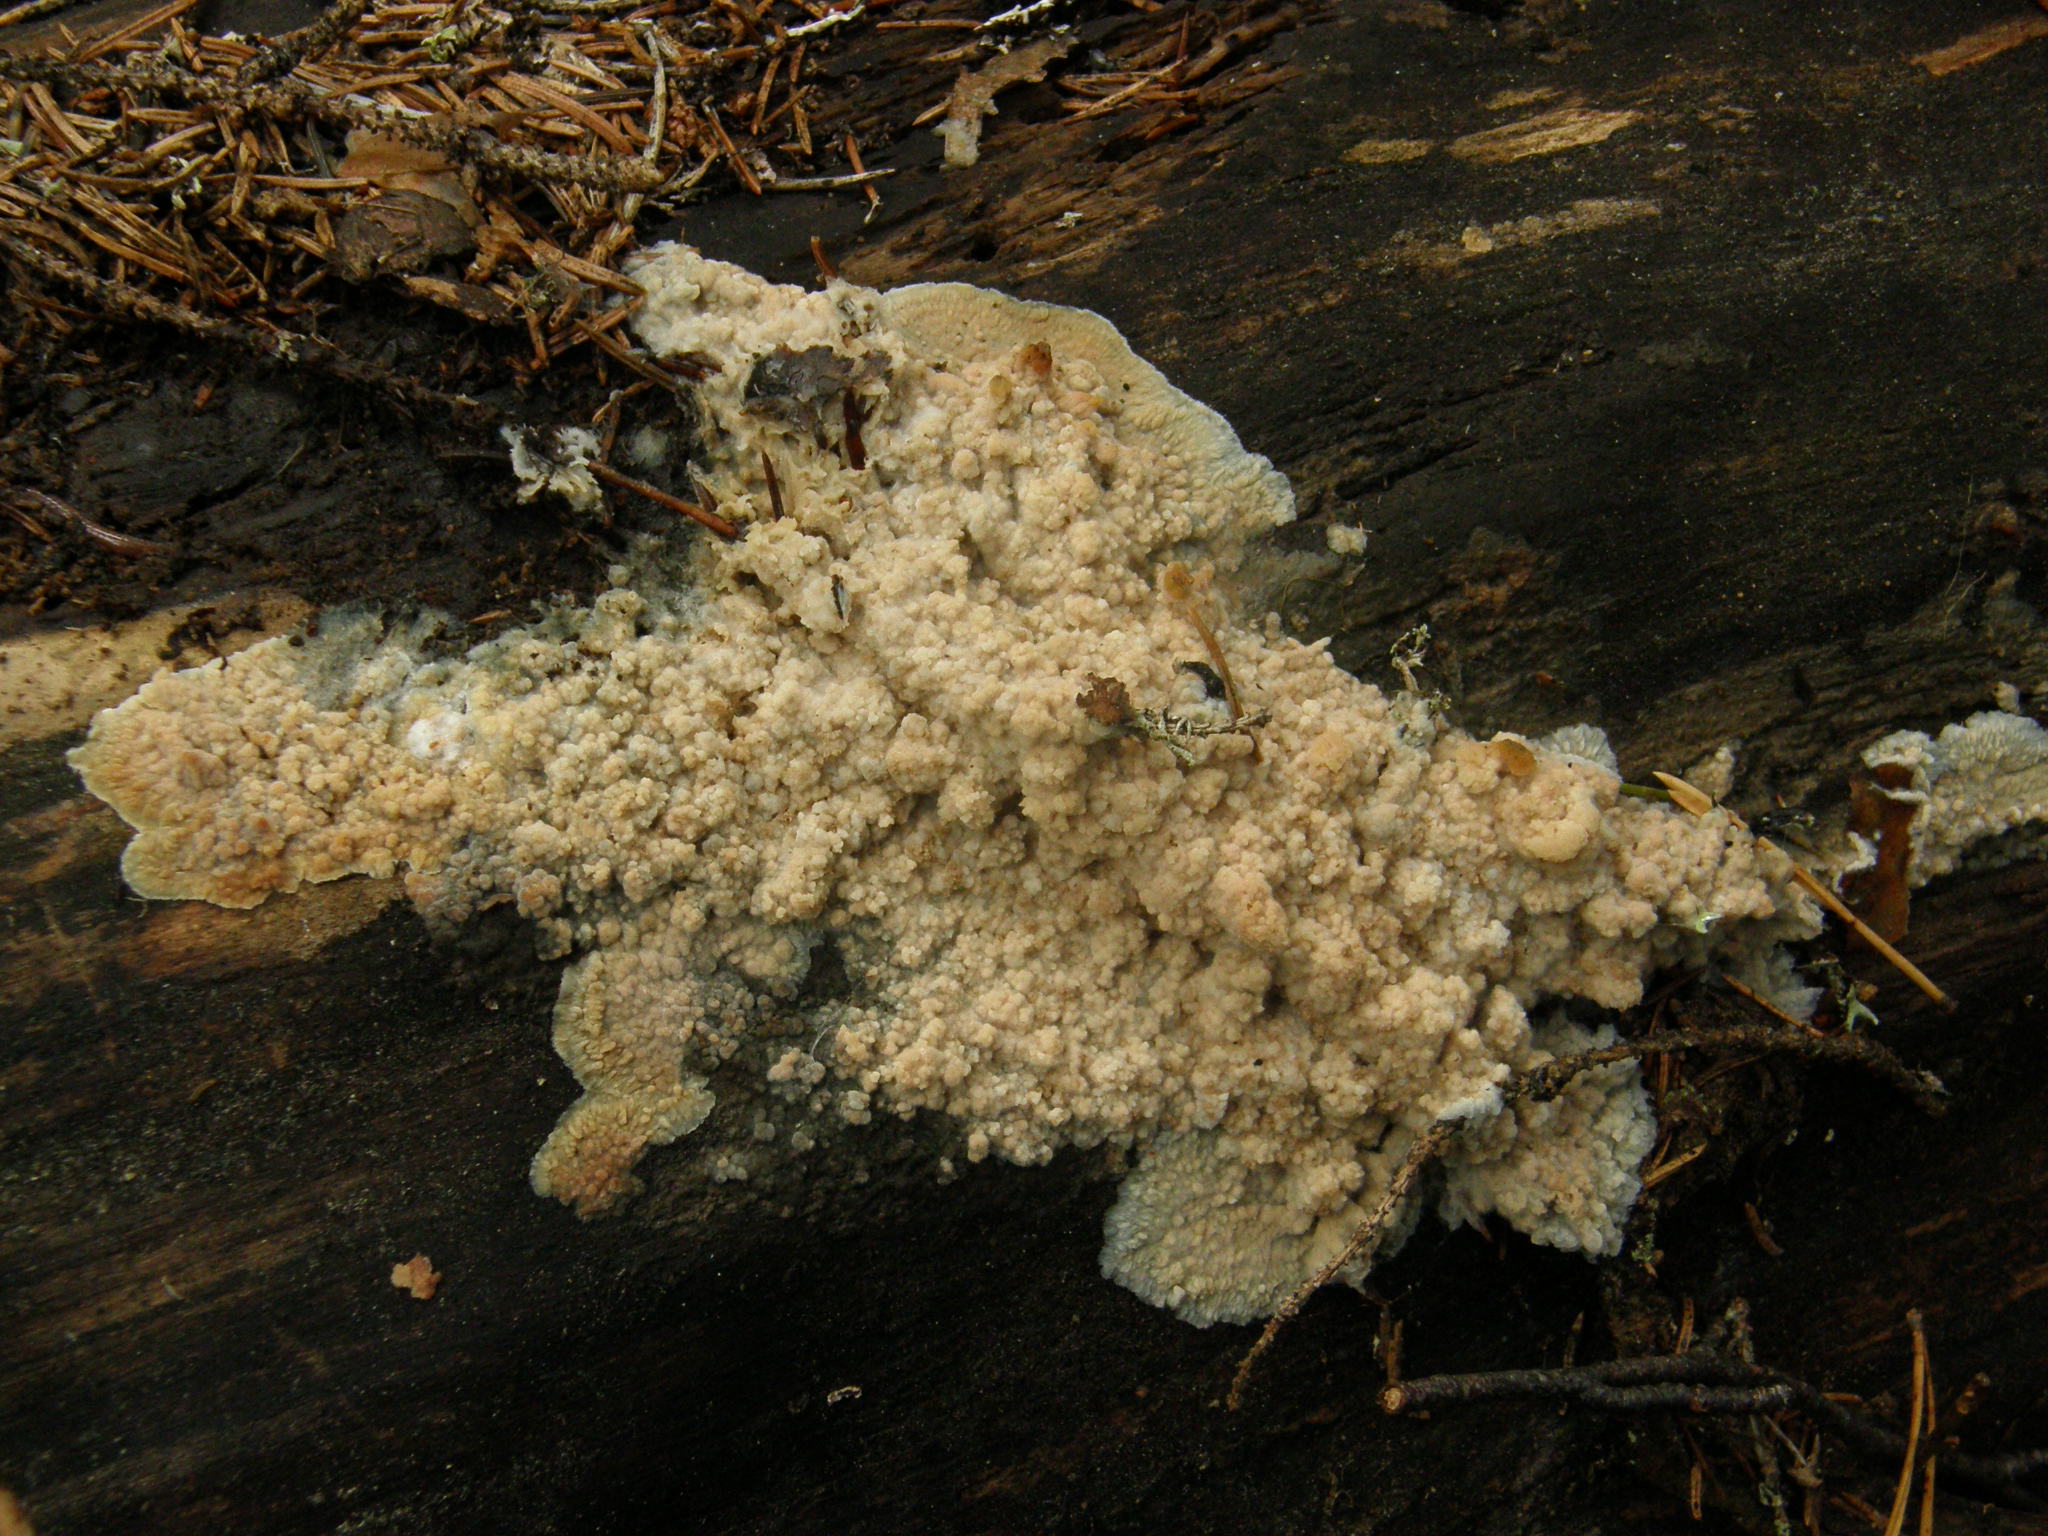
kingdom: Fungi
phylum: Basidiomycota
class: Agaricomycetes
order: Polyporales
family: Meruliaceae
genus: Phlebia
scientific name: Phlebia
